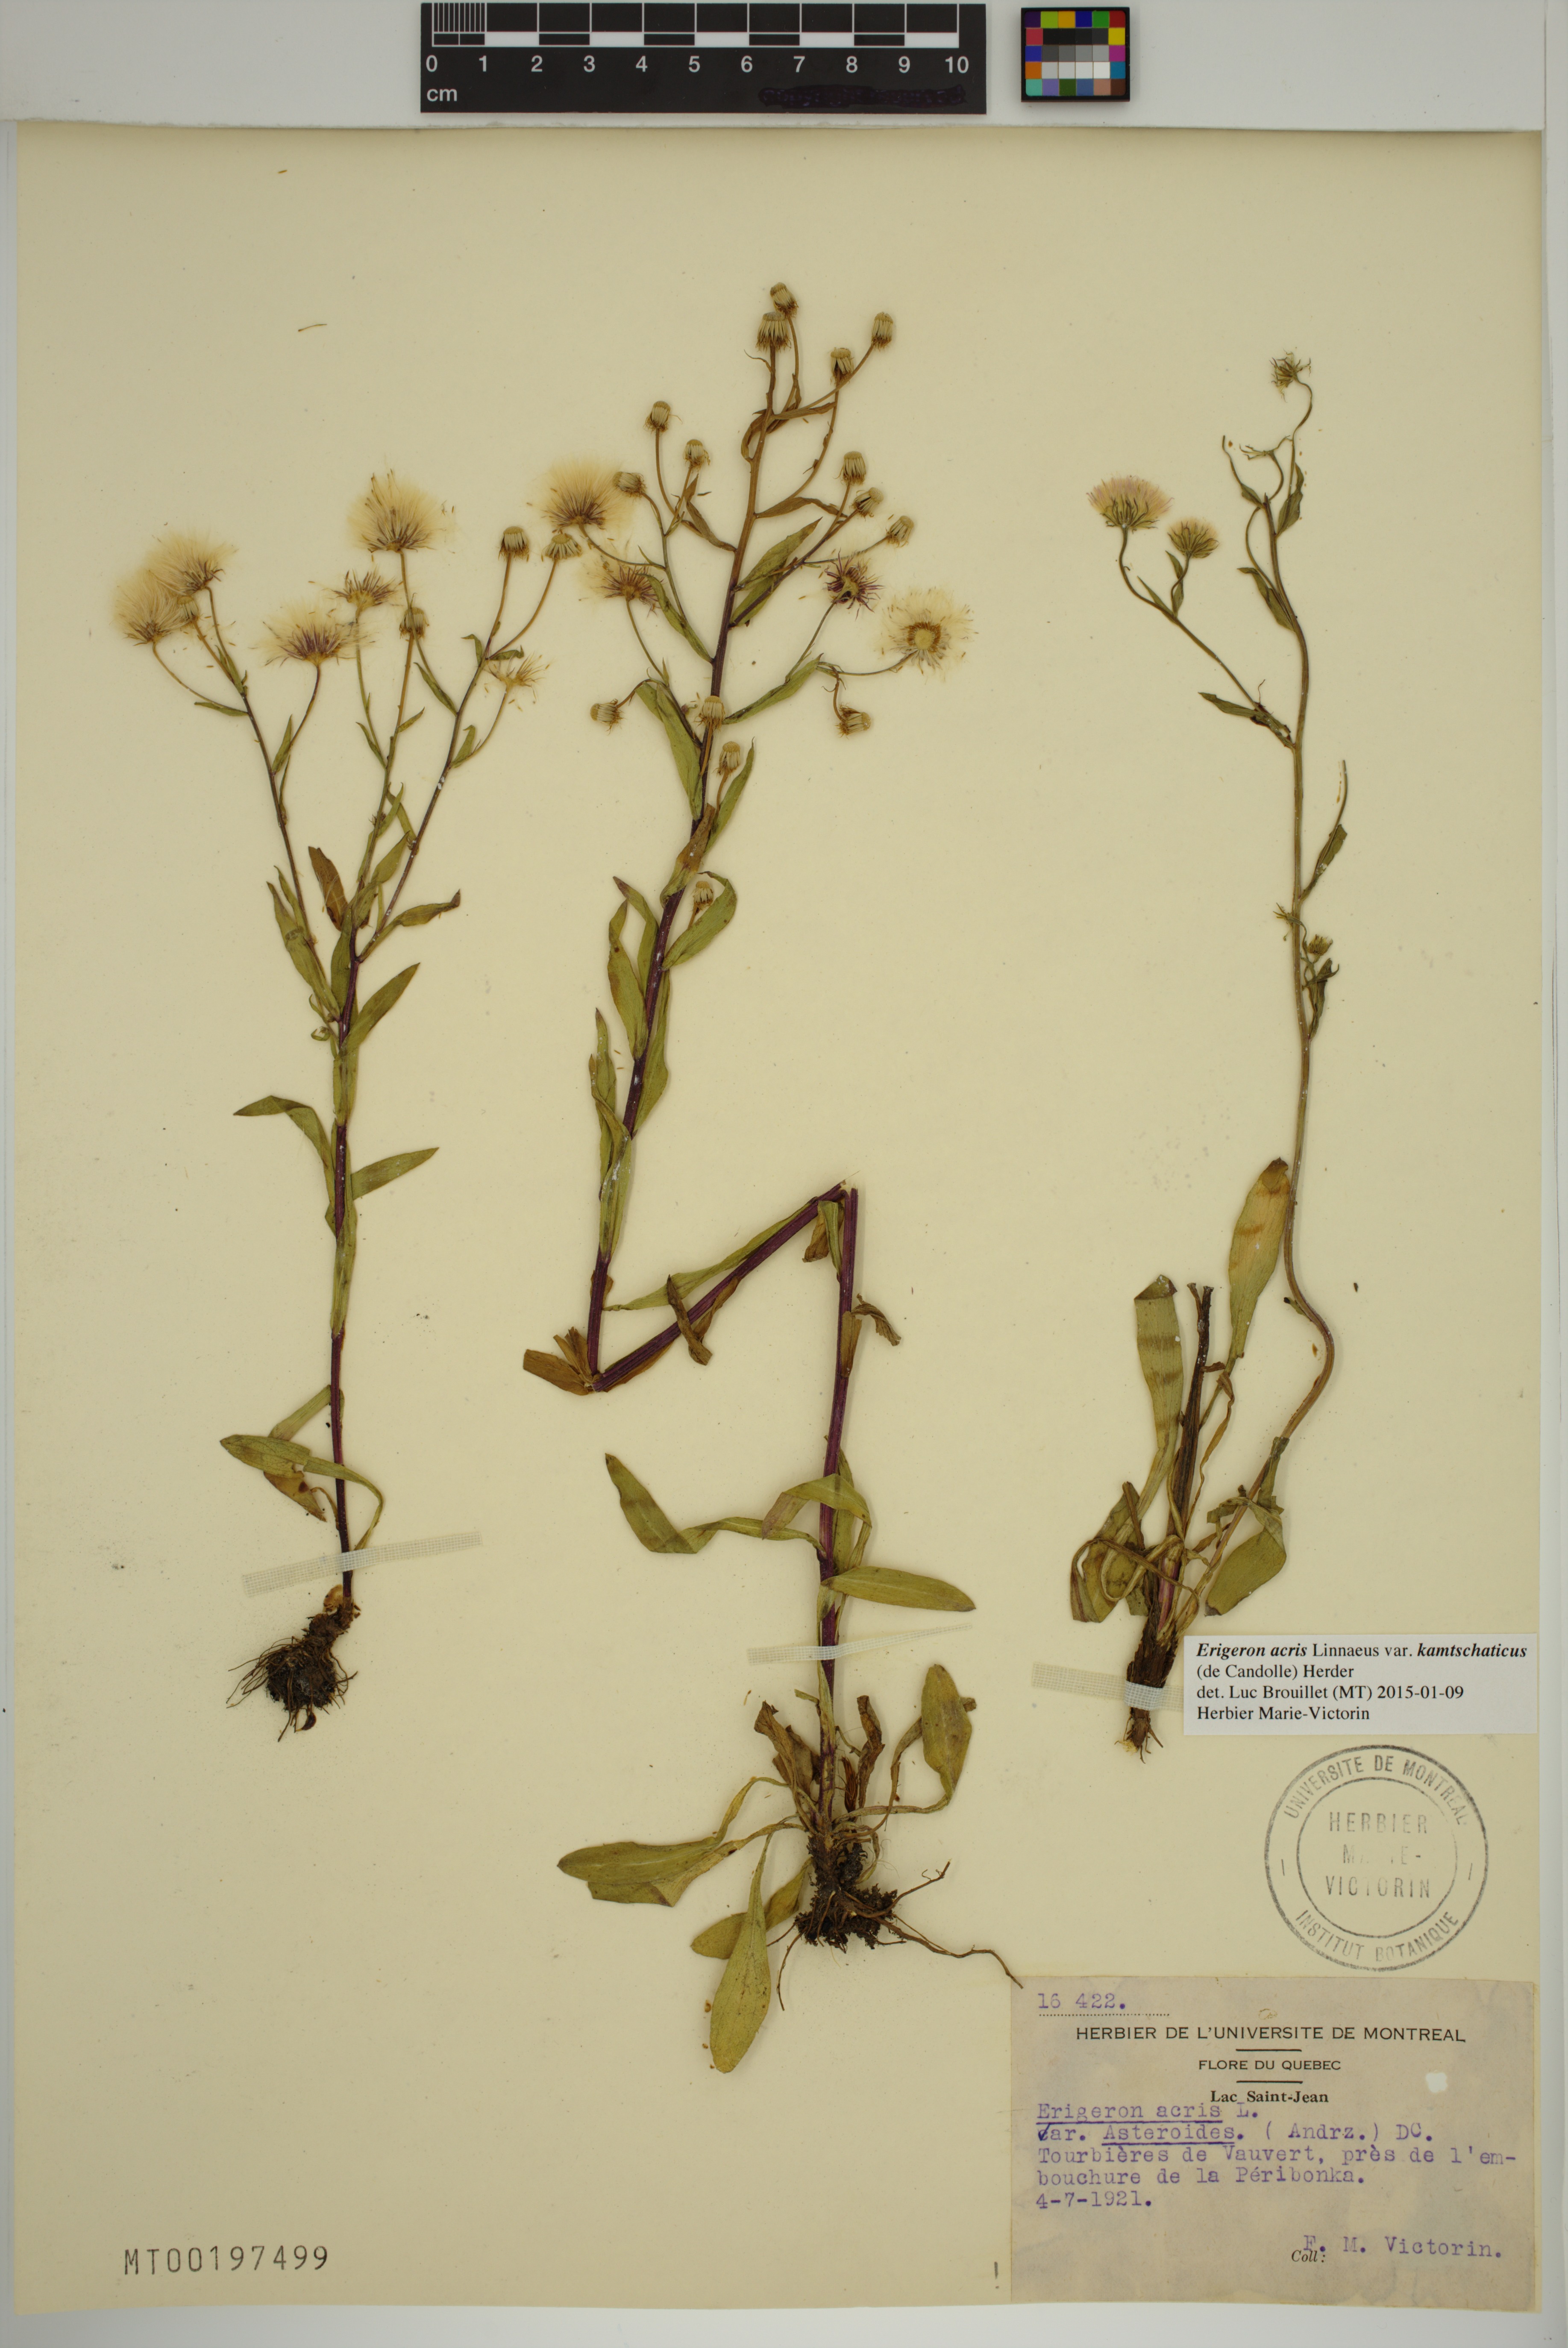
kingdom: Plantae
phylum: Tracheophyta
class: Magnoliopsida
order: Asterales
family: Asteraceae
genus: Erigeron
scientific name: Erigeron kamtschaticus
